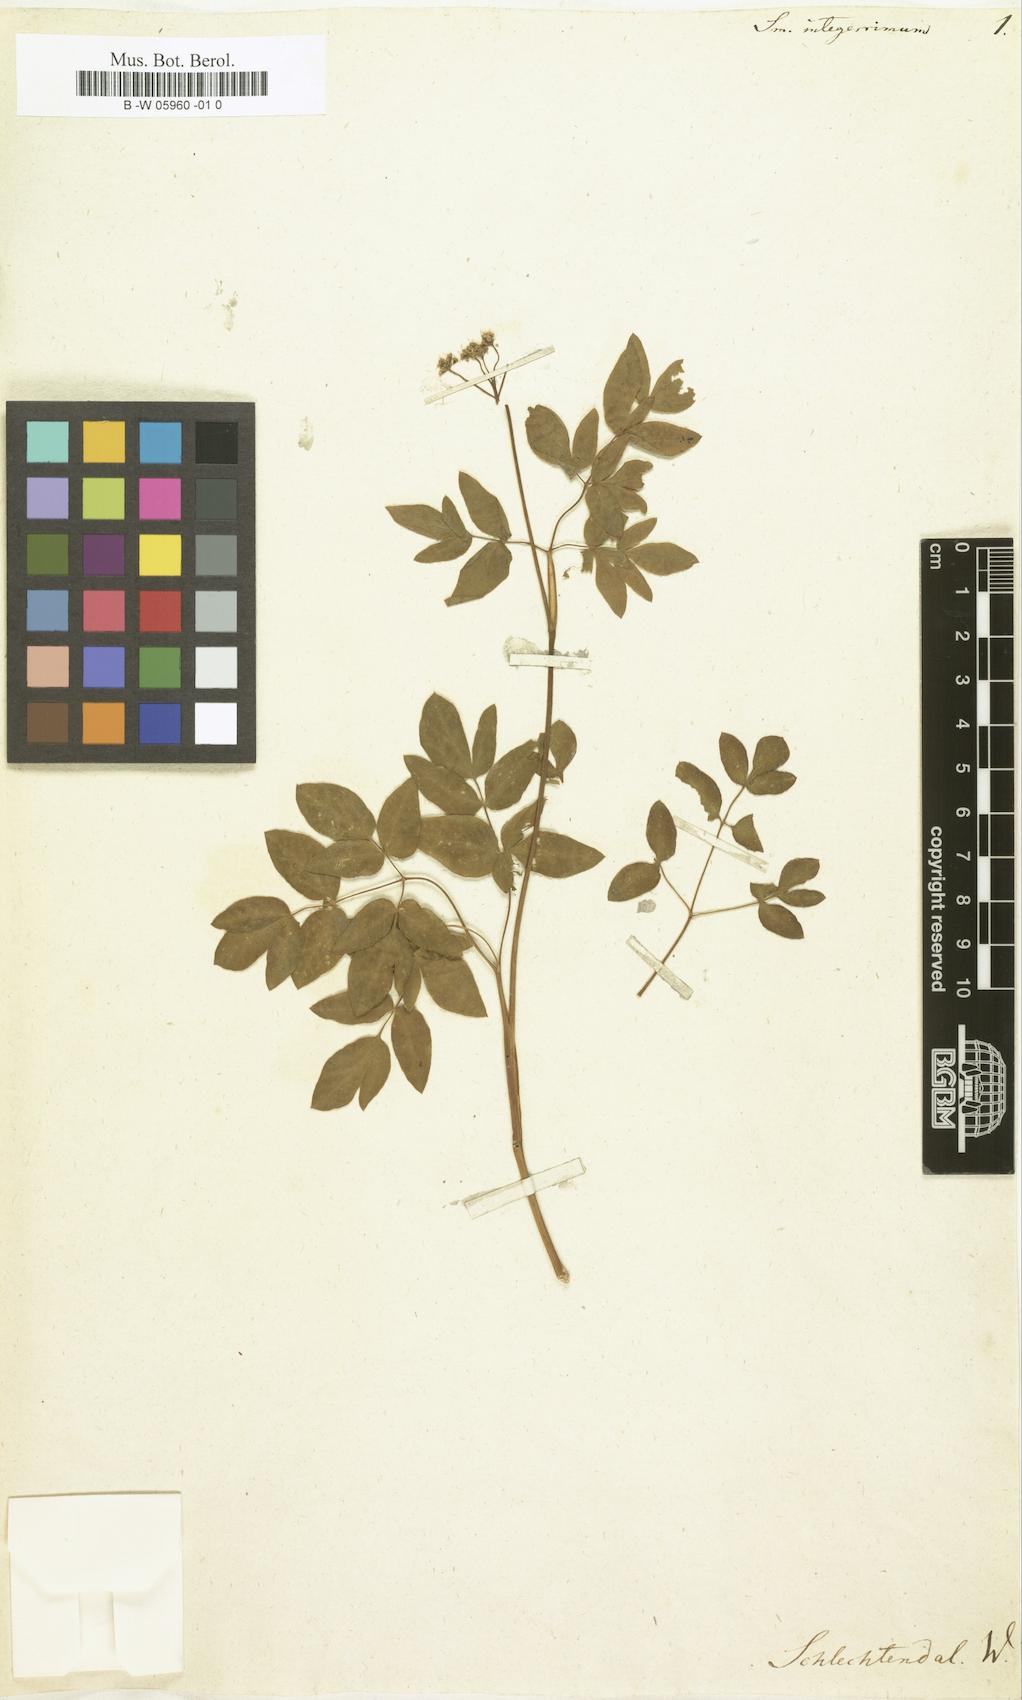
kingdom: Plantae
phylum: Tracheophyta
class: Magnoliopsida
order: Apiales
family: Apiaceae
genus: Taenidia
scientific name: Taenidia integerrima
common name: Golden alexander
